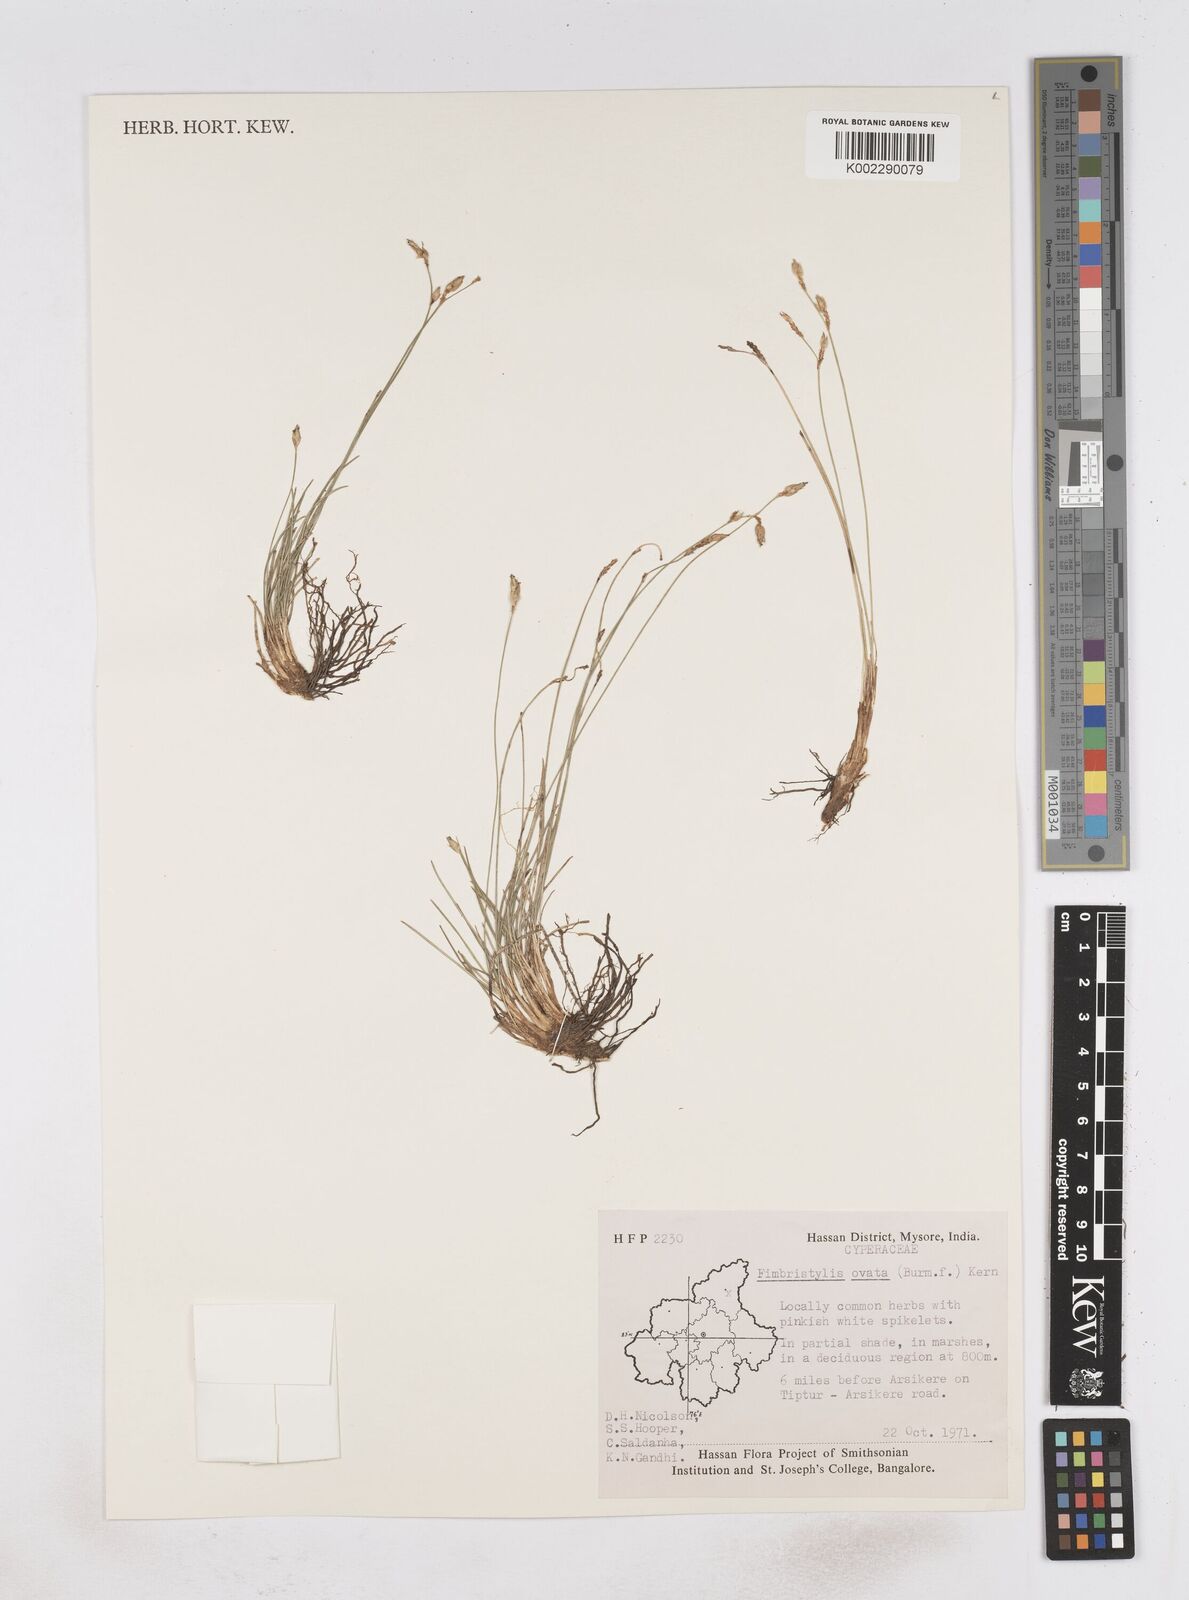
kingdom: Plantae
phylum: Tracheophyta
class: Liliopsida
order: Poales
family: Cyperaceae
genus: Abildgaardia
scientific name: Abildgaardia ovata
